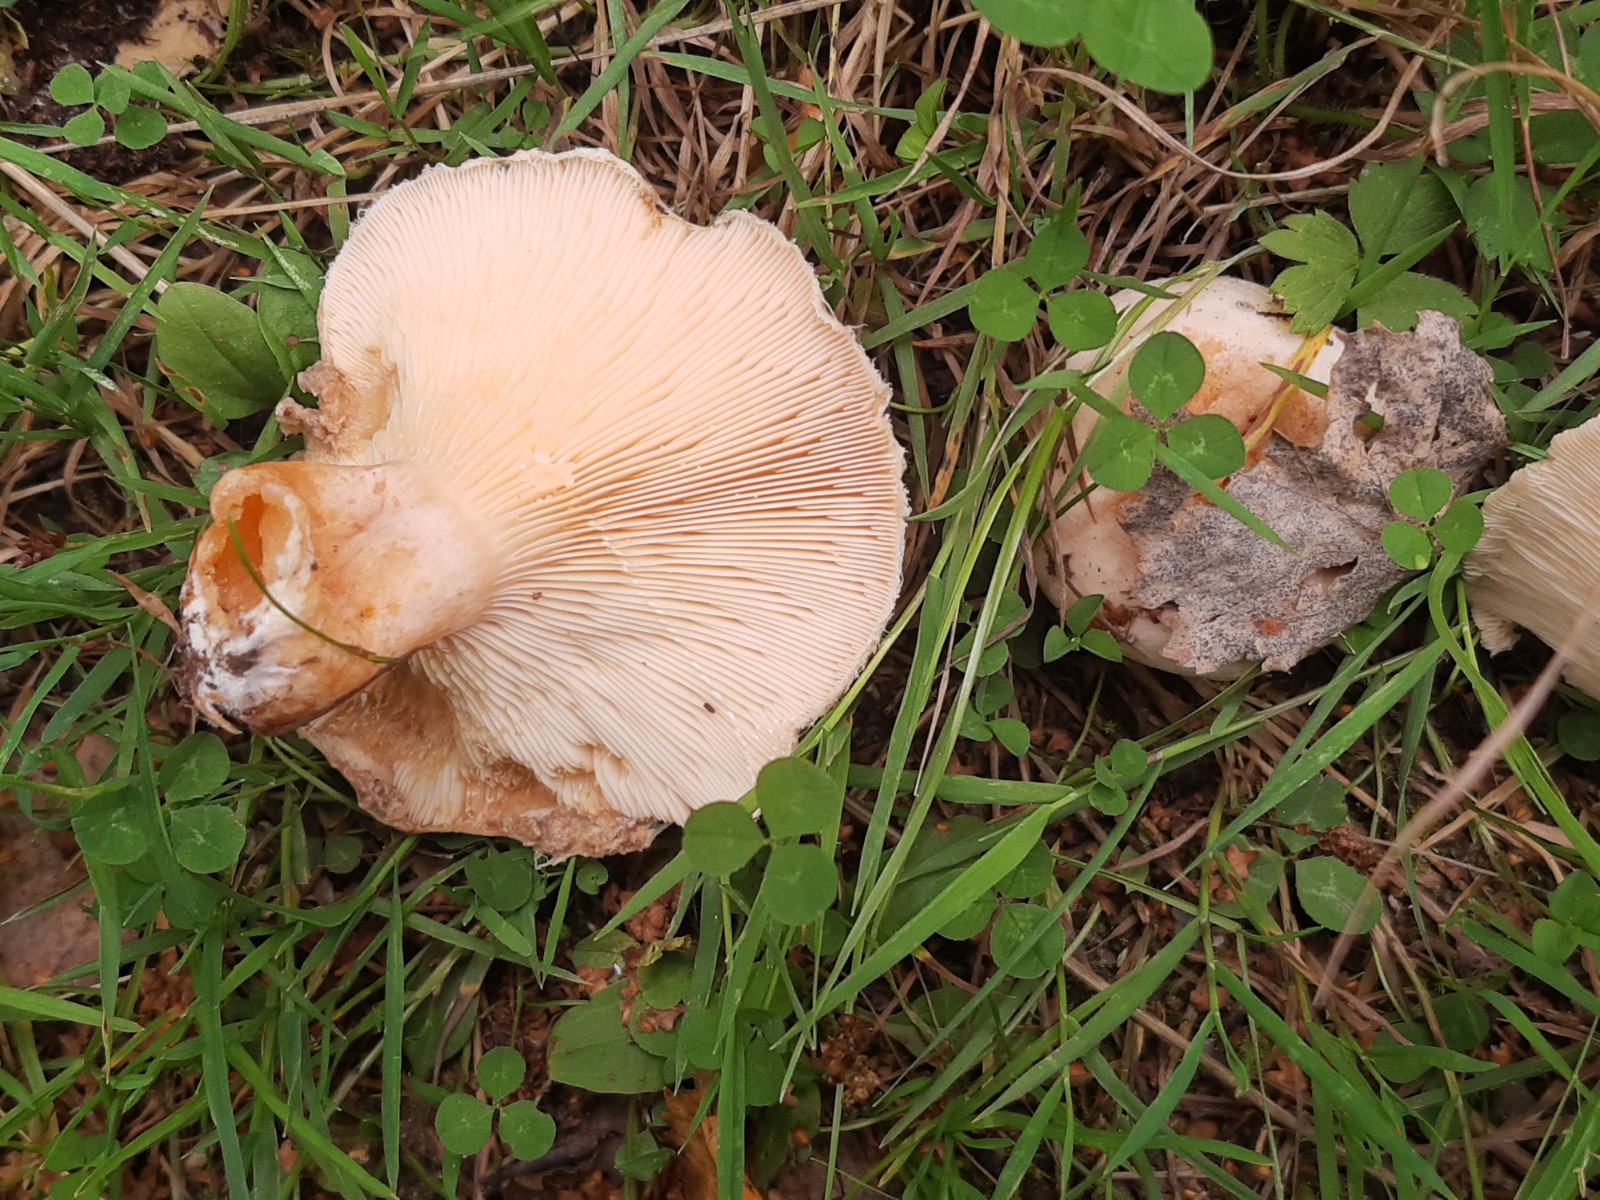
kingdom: Fungi
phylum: Basidiomycota
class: Agaricomycetes
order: Russulales
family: Russulaceae
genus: Lactarius
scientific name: Lactarius pubescens
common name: dunet mælkehat
